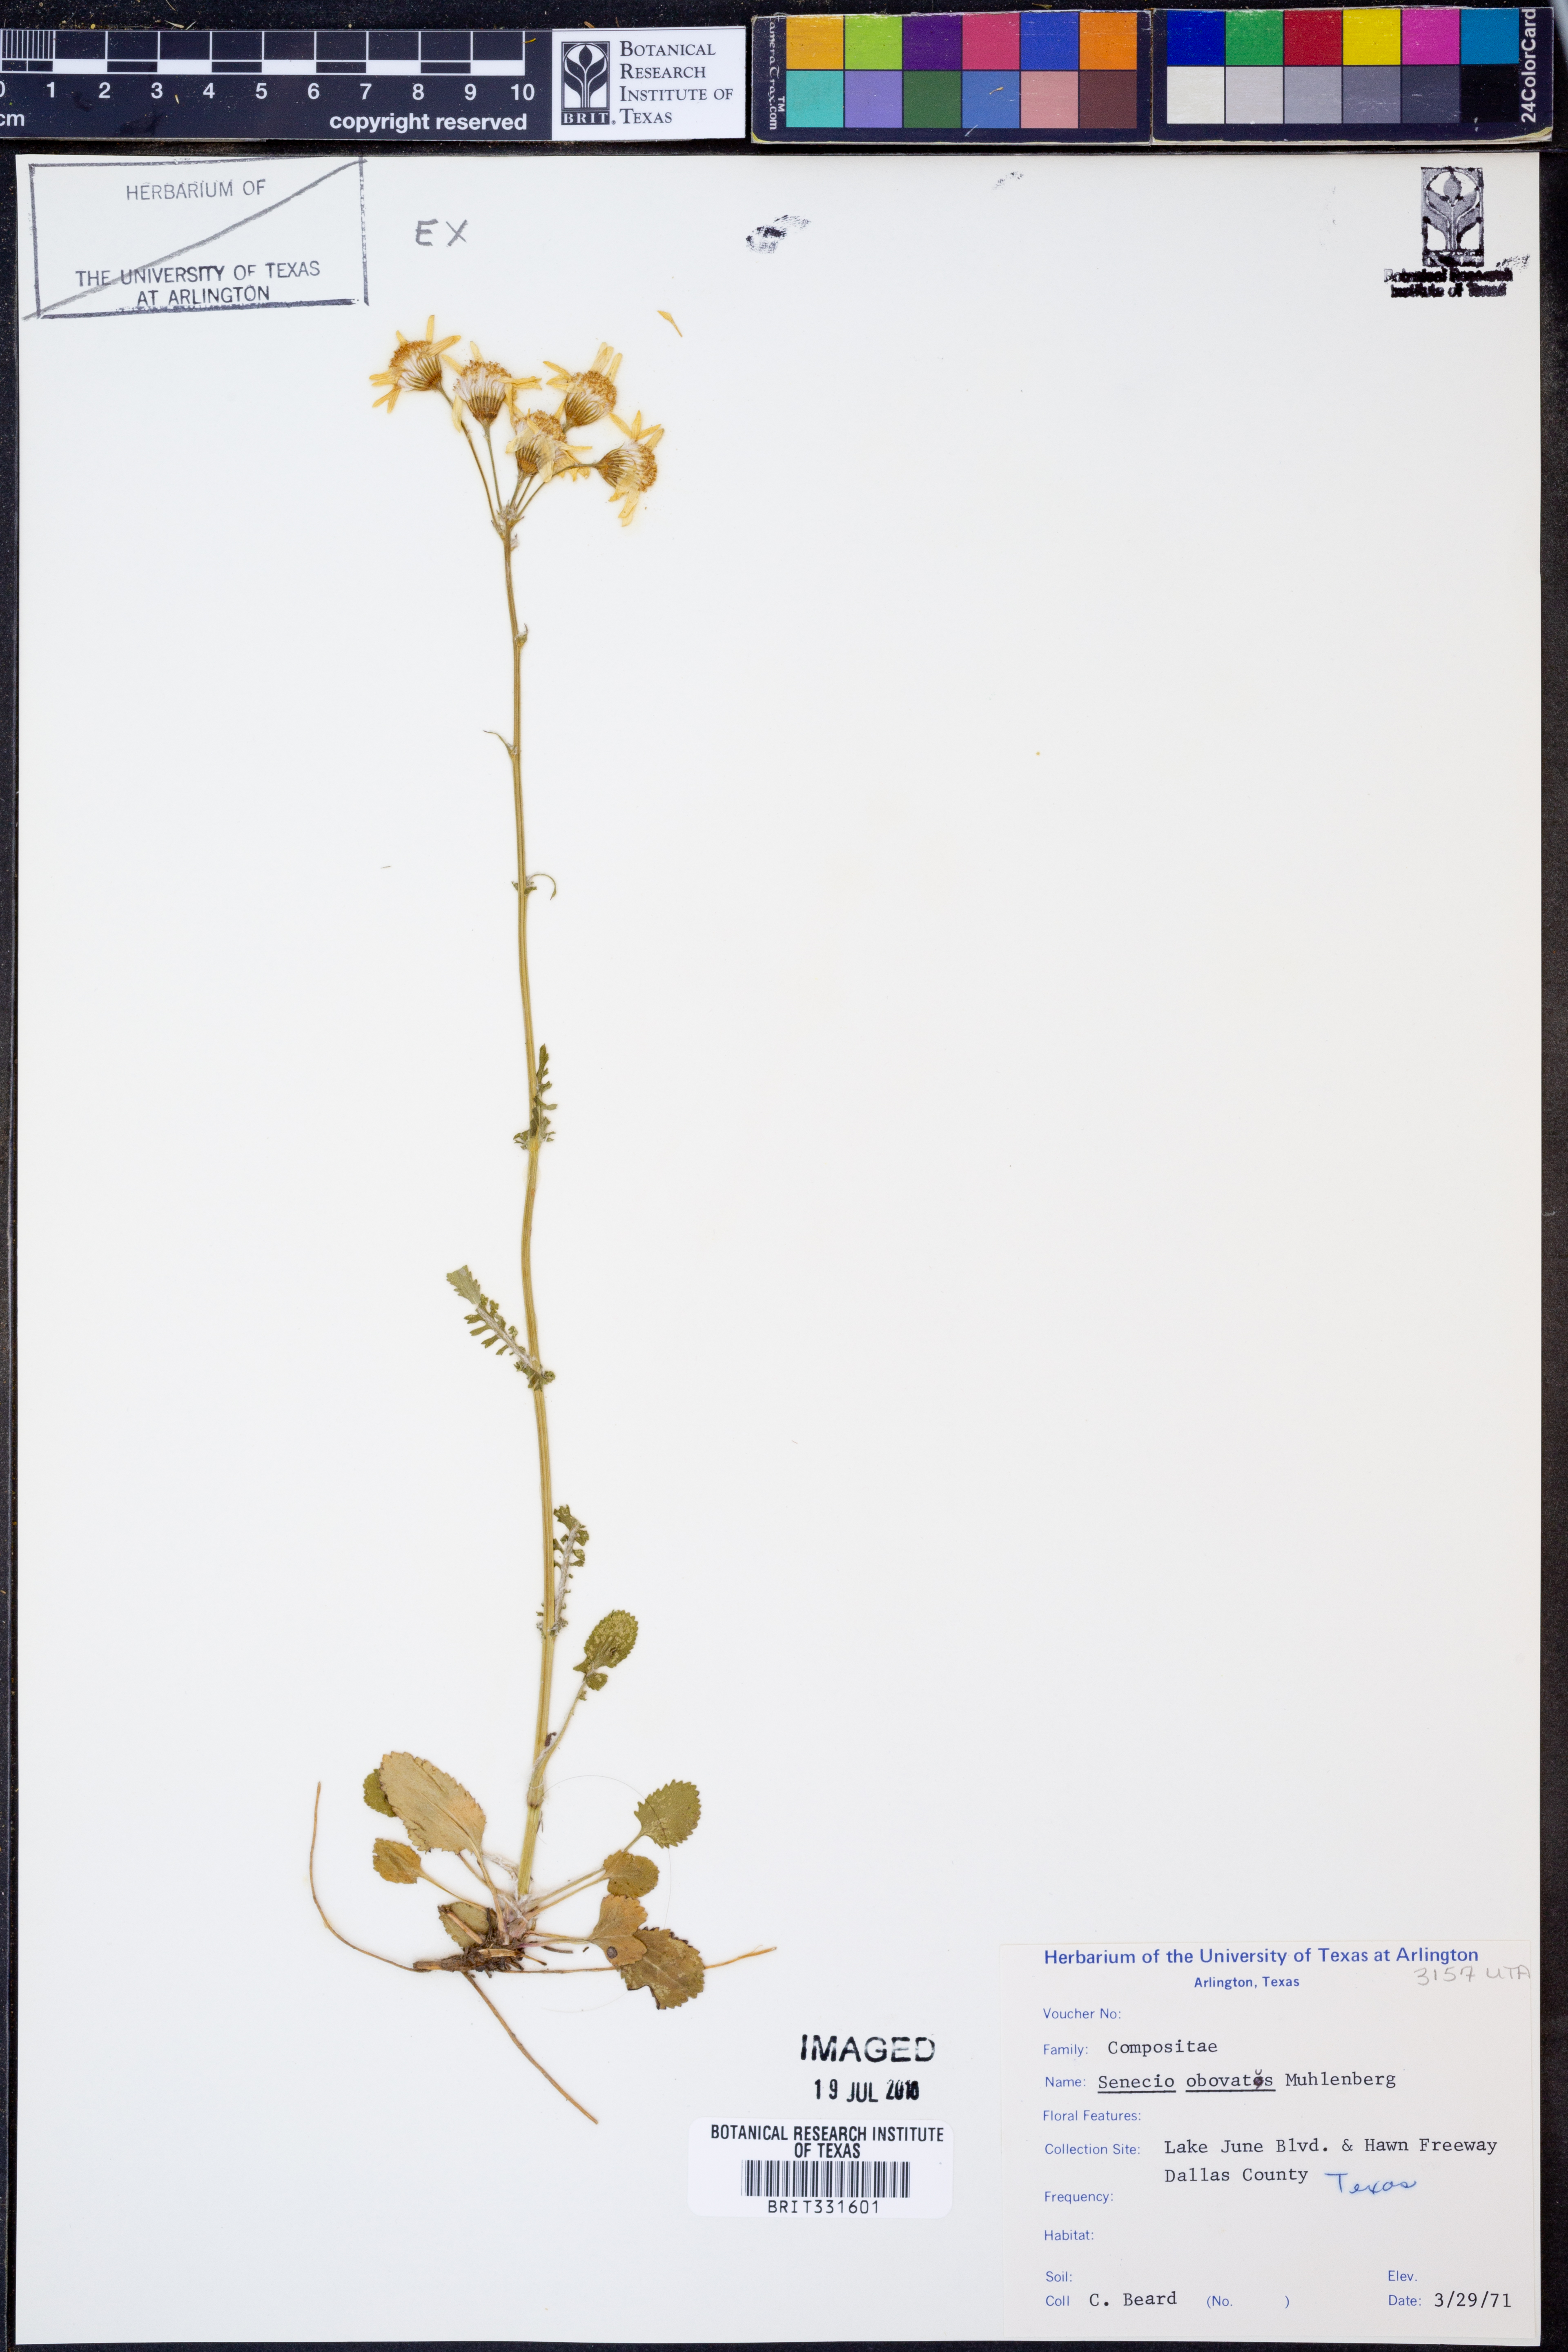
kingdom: Plantae
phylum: Tracheophyta
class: Magnoliopsida
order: Asterales
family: Asteraceae
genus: Senecio
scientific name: Senecio provincialis
